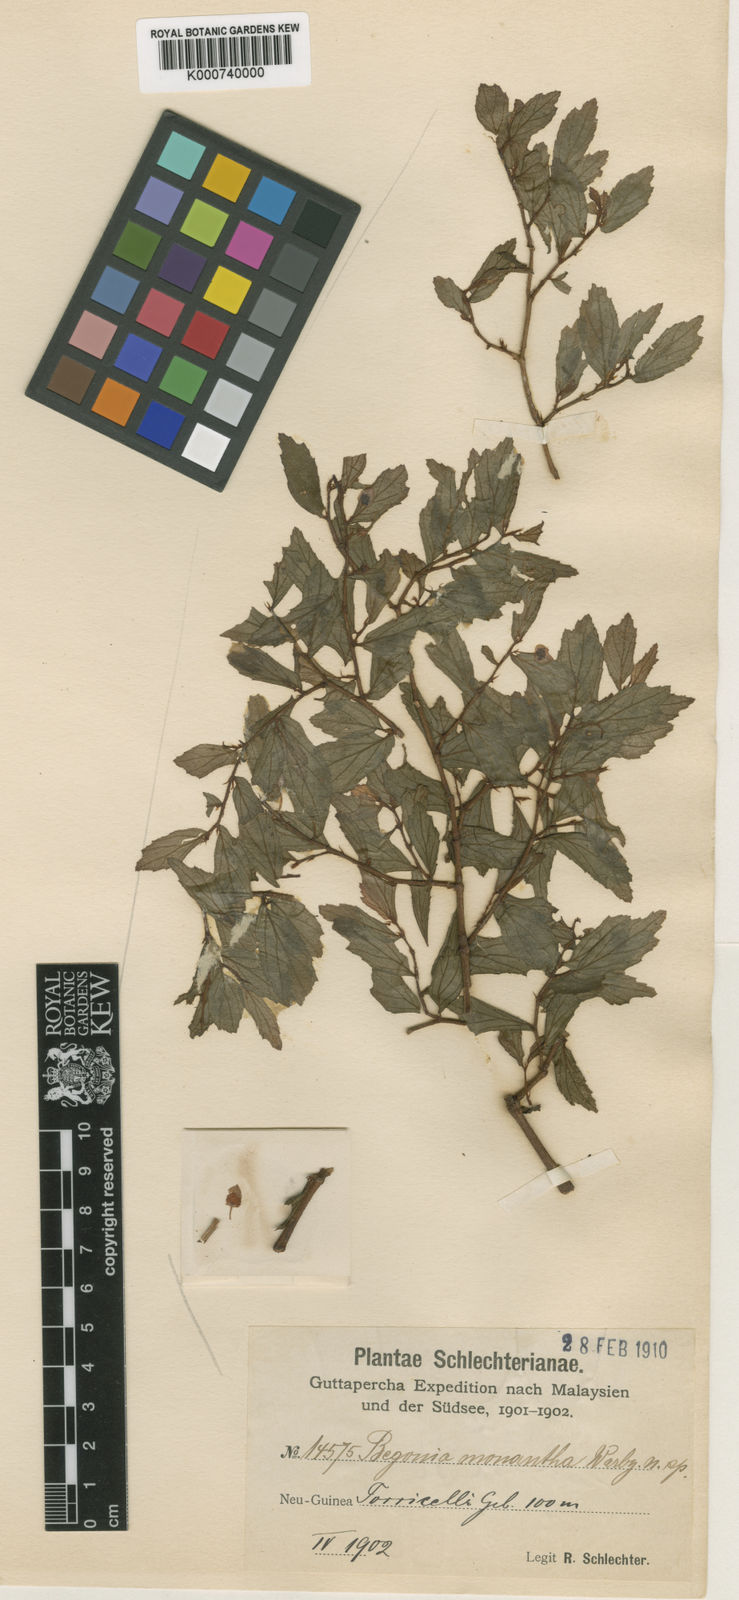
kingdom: Plantae
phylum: Tracheophyta
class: Magnoliopsida
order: Cucurbitales
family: Begoniaceae
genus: Begonia
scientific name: Begonia monantha
